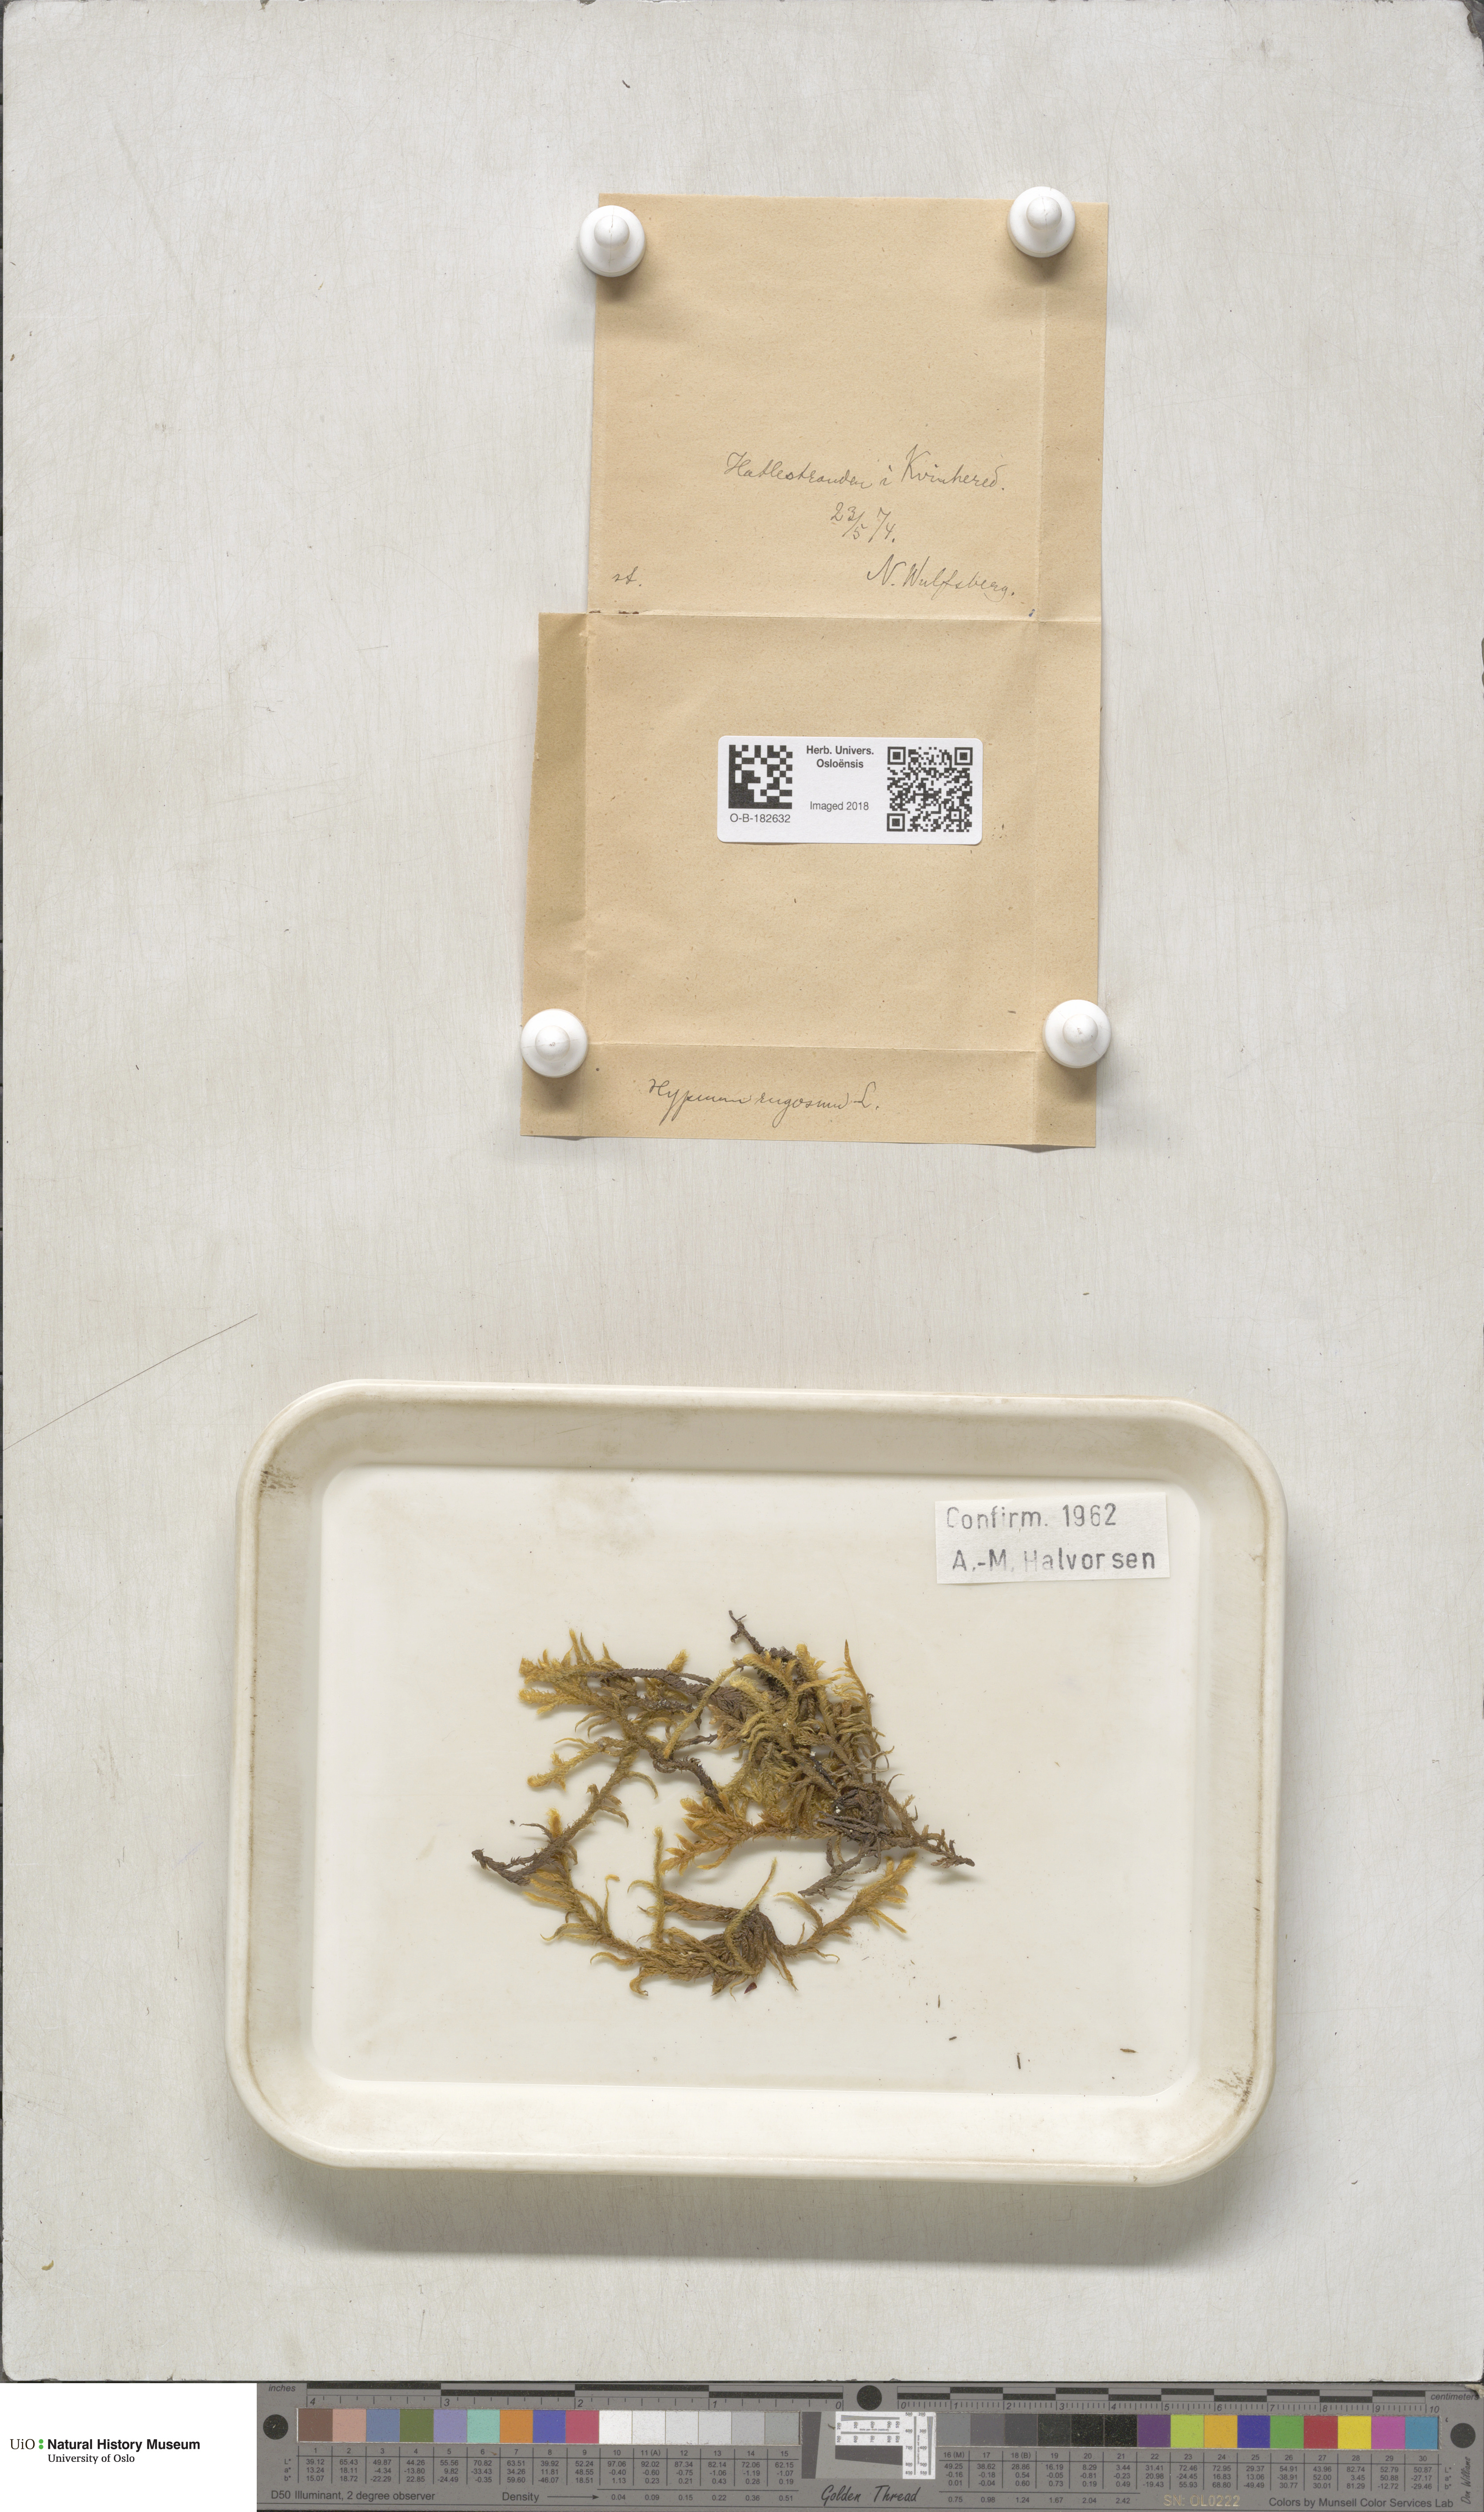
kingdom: Plantae
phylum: Bryophyta
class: Bryopsida
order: Hypnales
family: Rhytidiaceae
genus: Rhytidium
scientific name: Rhytidium rugosum
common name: Wrinkle-leaved moss
